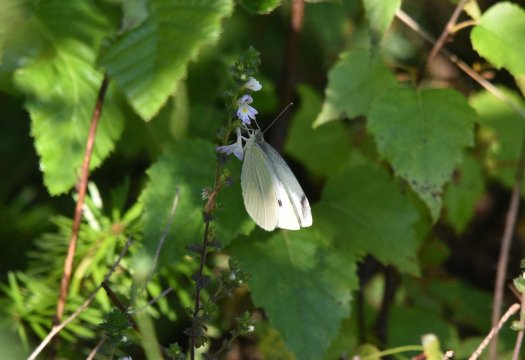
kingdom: Animalia
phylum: Arthropoda
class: Insecta
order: Lepidoptera
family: Pieridae
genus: Pieris
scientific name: Pieris rapae
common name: Cabbage White
